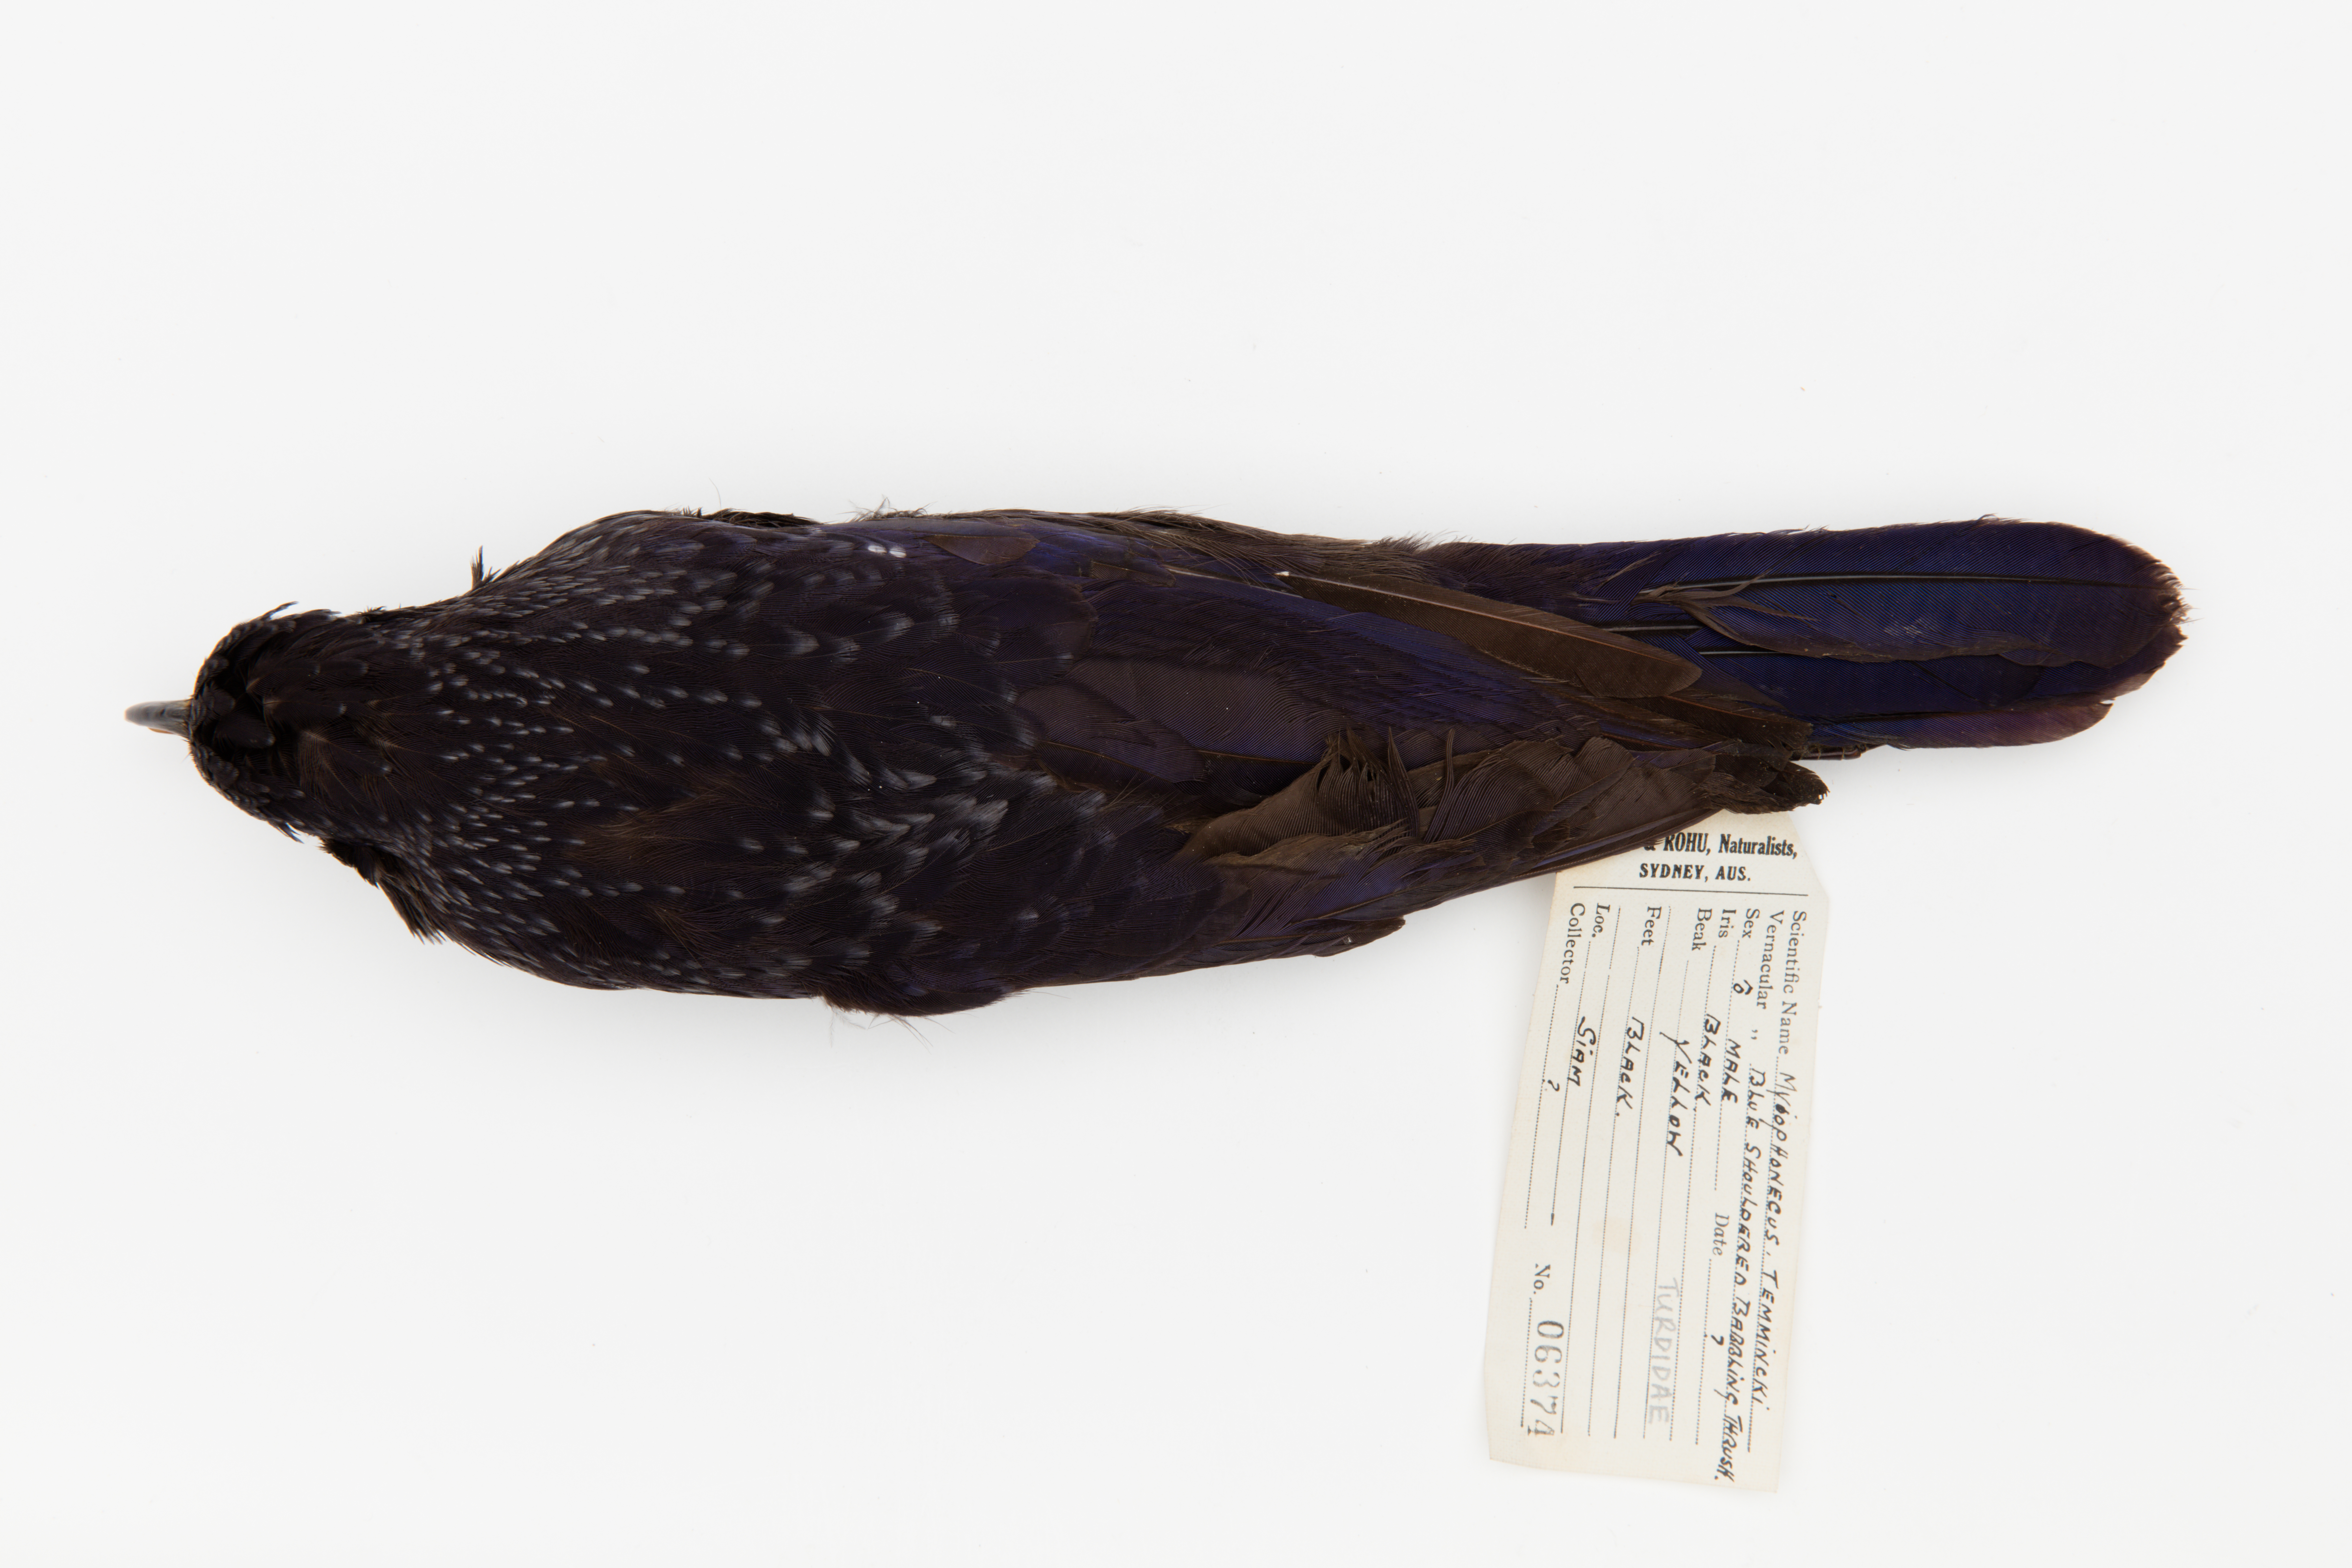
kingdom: Animalia
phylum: Chordata
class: Aves
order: Passeriformes
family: Muscicapidae
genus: Myophonus
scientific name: Myophonus
